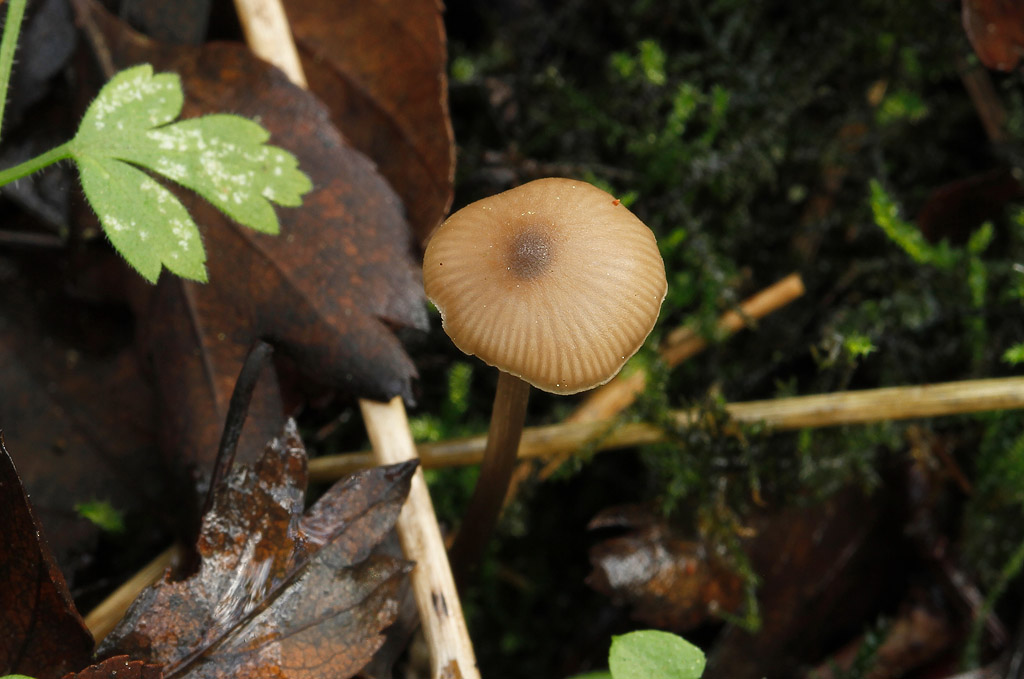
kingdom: Fungi
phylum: Basidiomycota
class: Agaricomycetes
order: Agaricales
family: Entolomataceae
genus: Entoloma
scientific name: Entoloma hebes
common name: Pimple pinkgill
